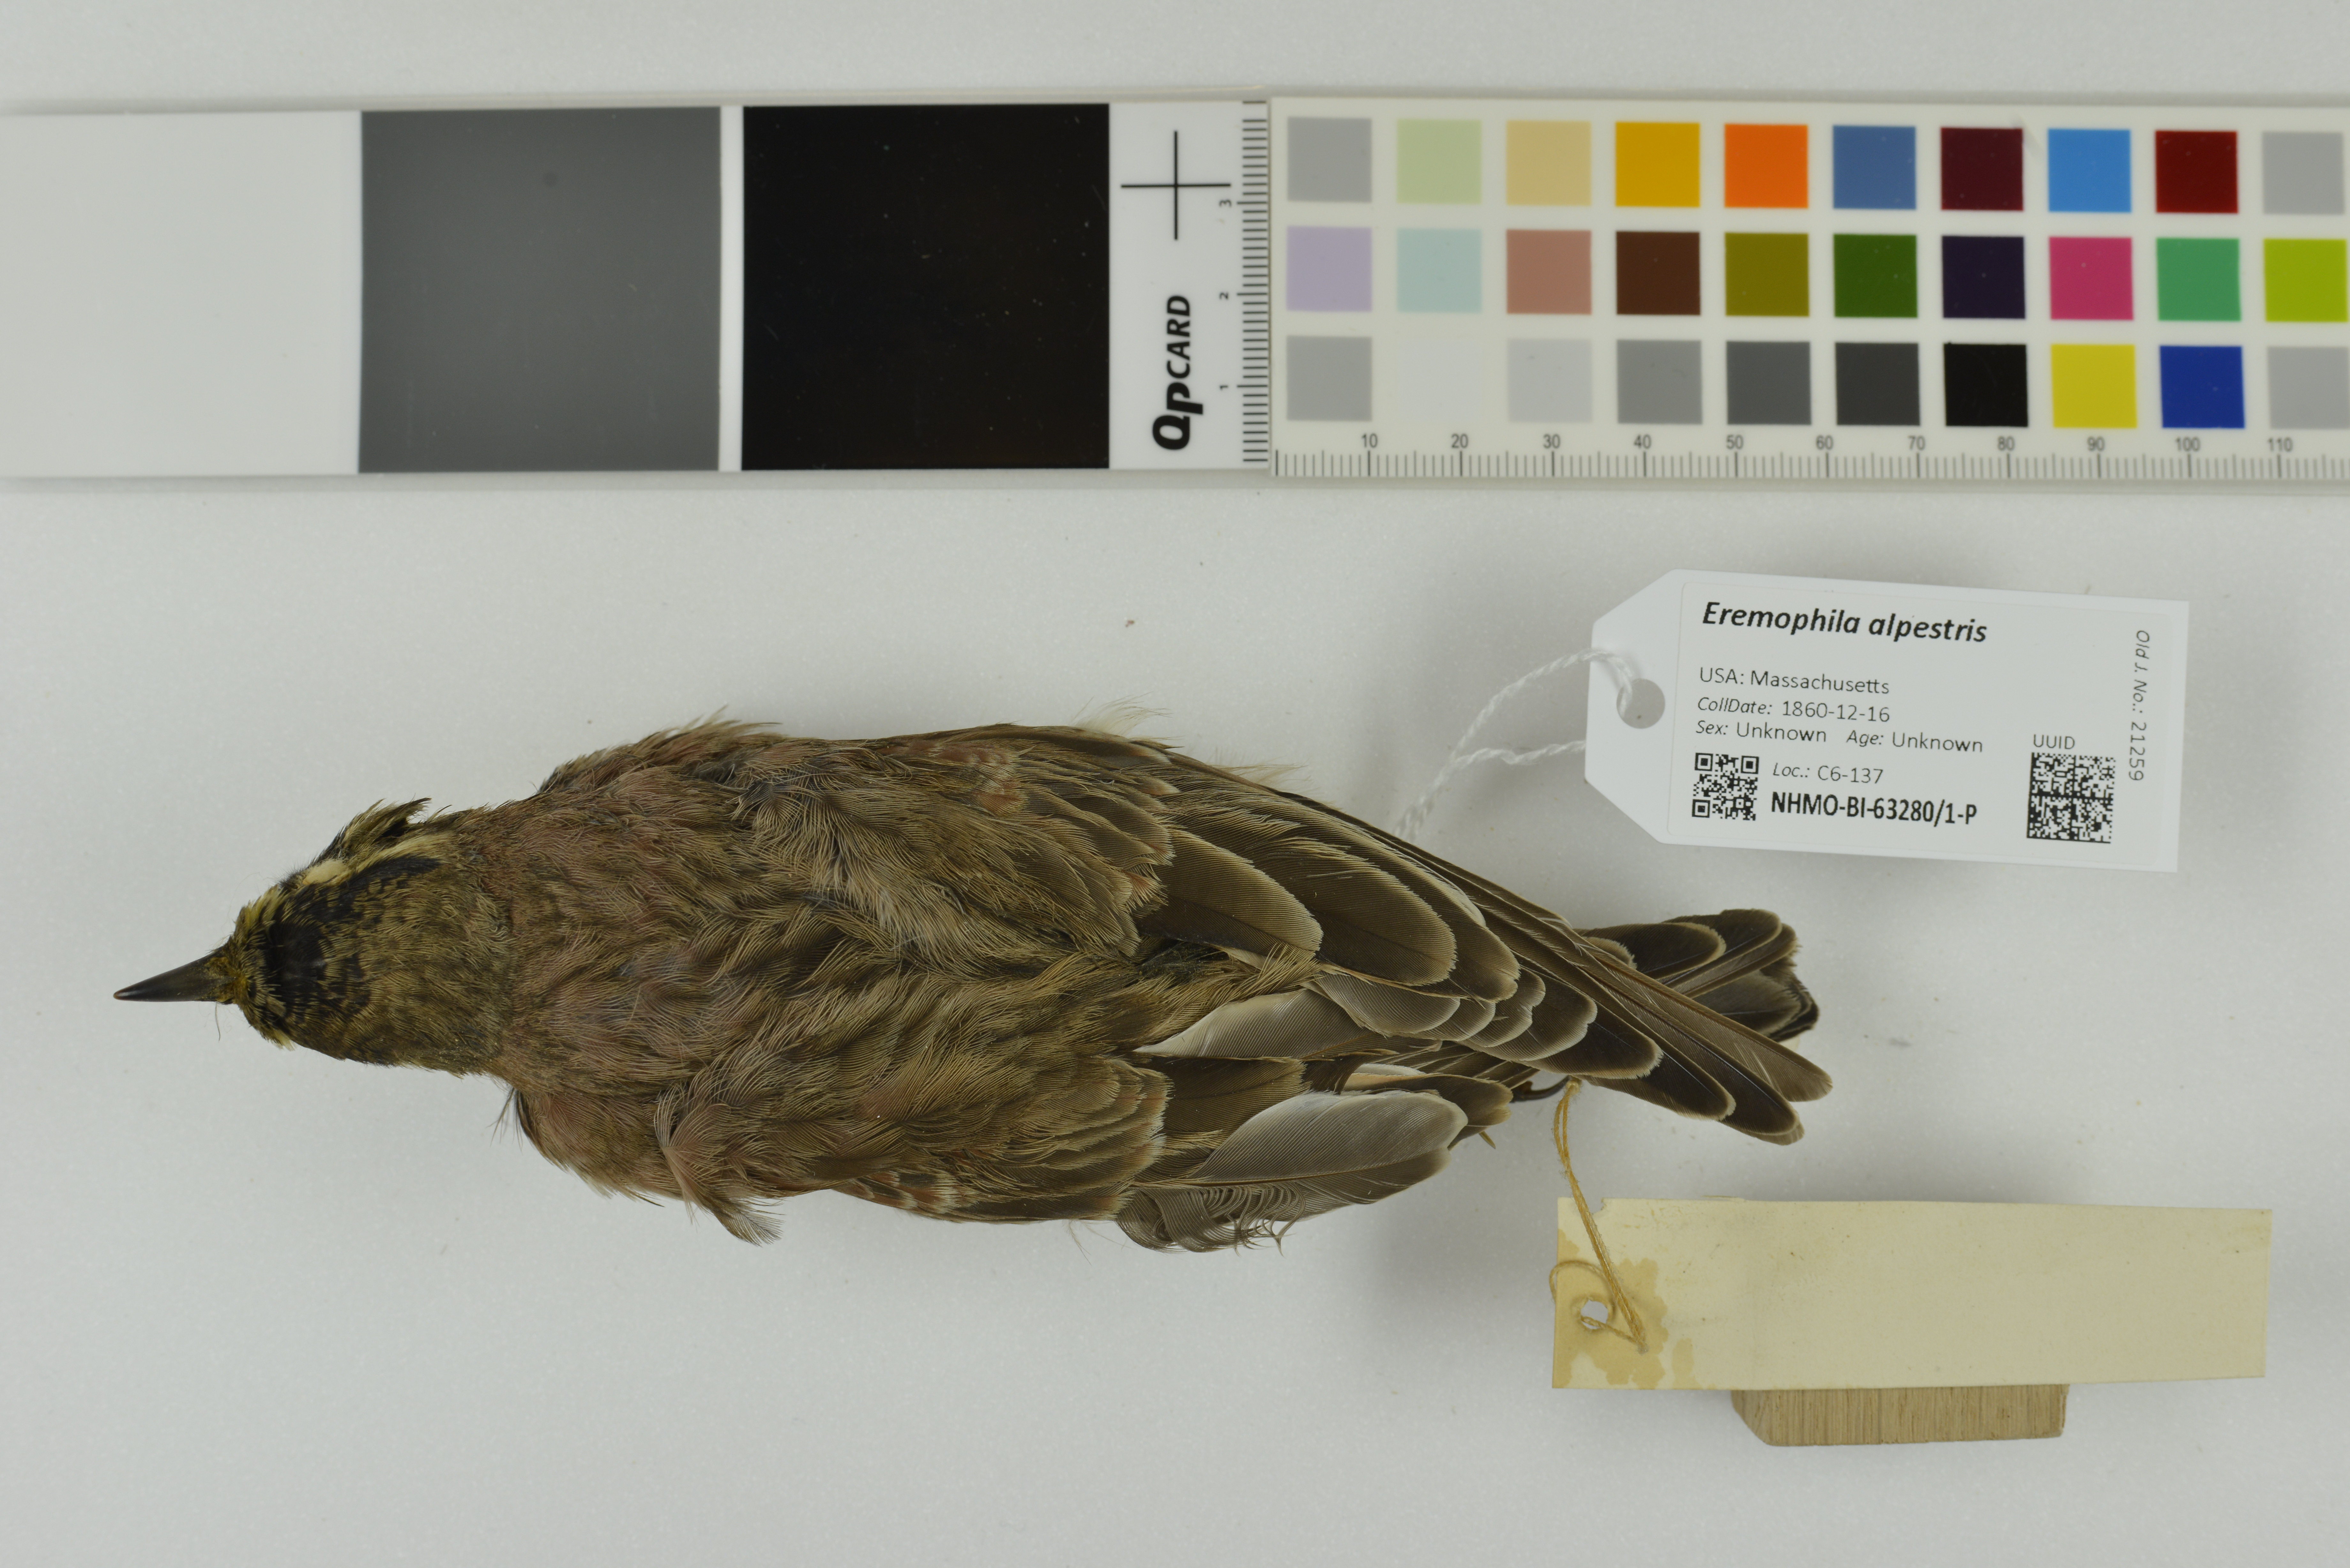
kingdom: Animalia
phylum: Chordata
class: Aves
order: Passeriformes
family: Alaudidae
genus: Eremophila
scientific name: Eremophila alpestris
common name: Horned lark
